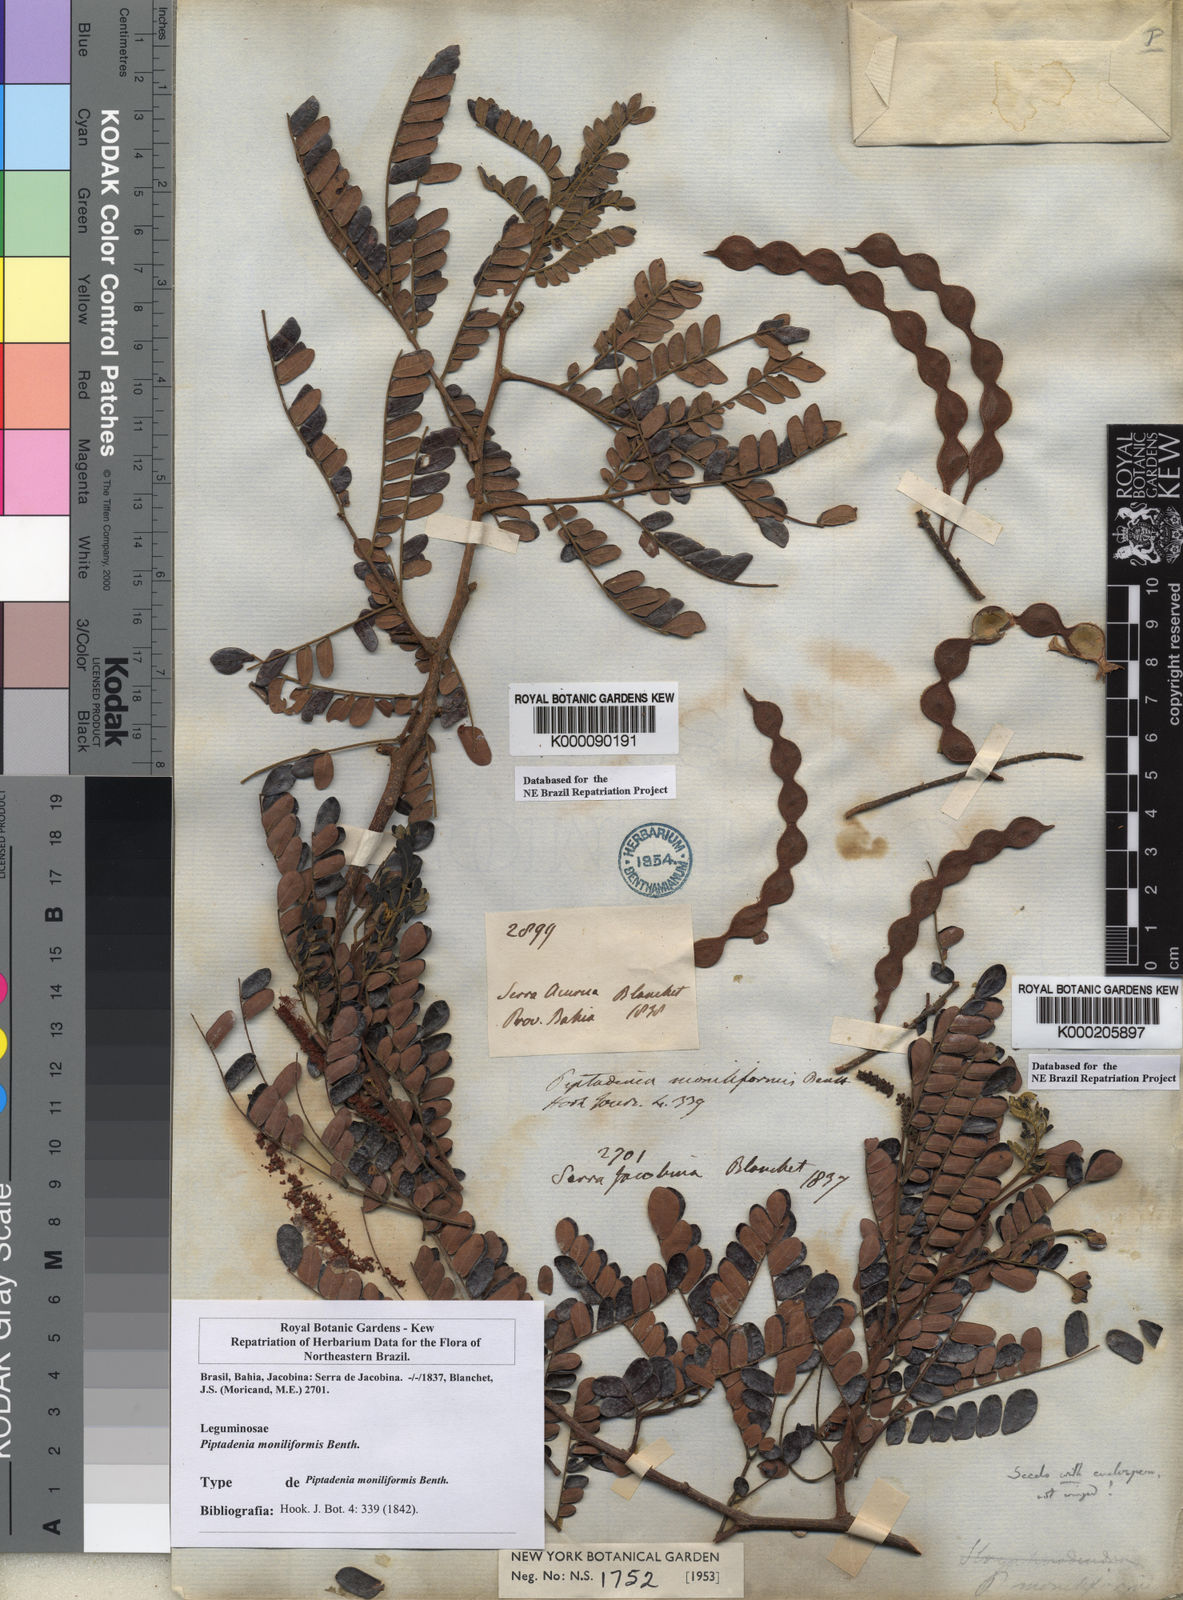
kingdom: Plantae
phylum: Tracheophyta
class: Magnoliopsida
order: Fabales
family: Fabaceae
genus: Pityrocarpa
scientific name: Pityrocarpa moniliformis
